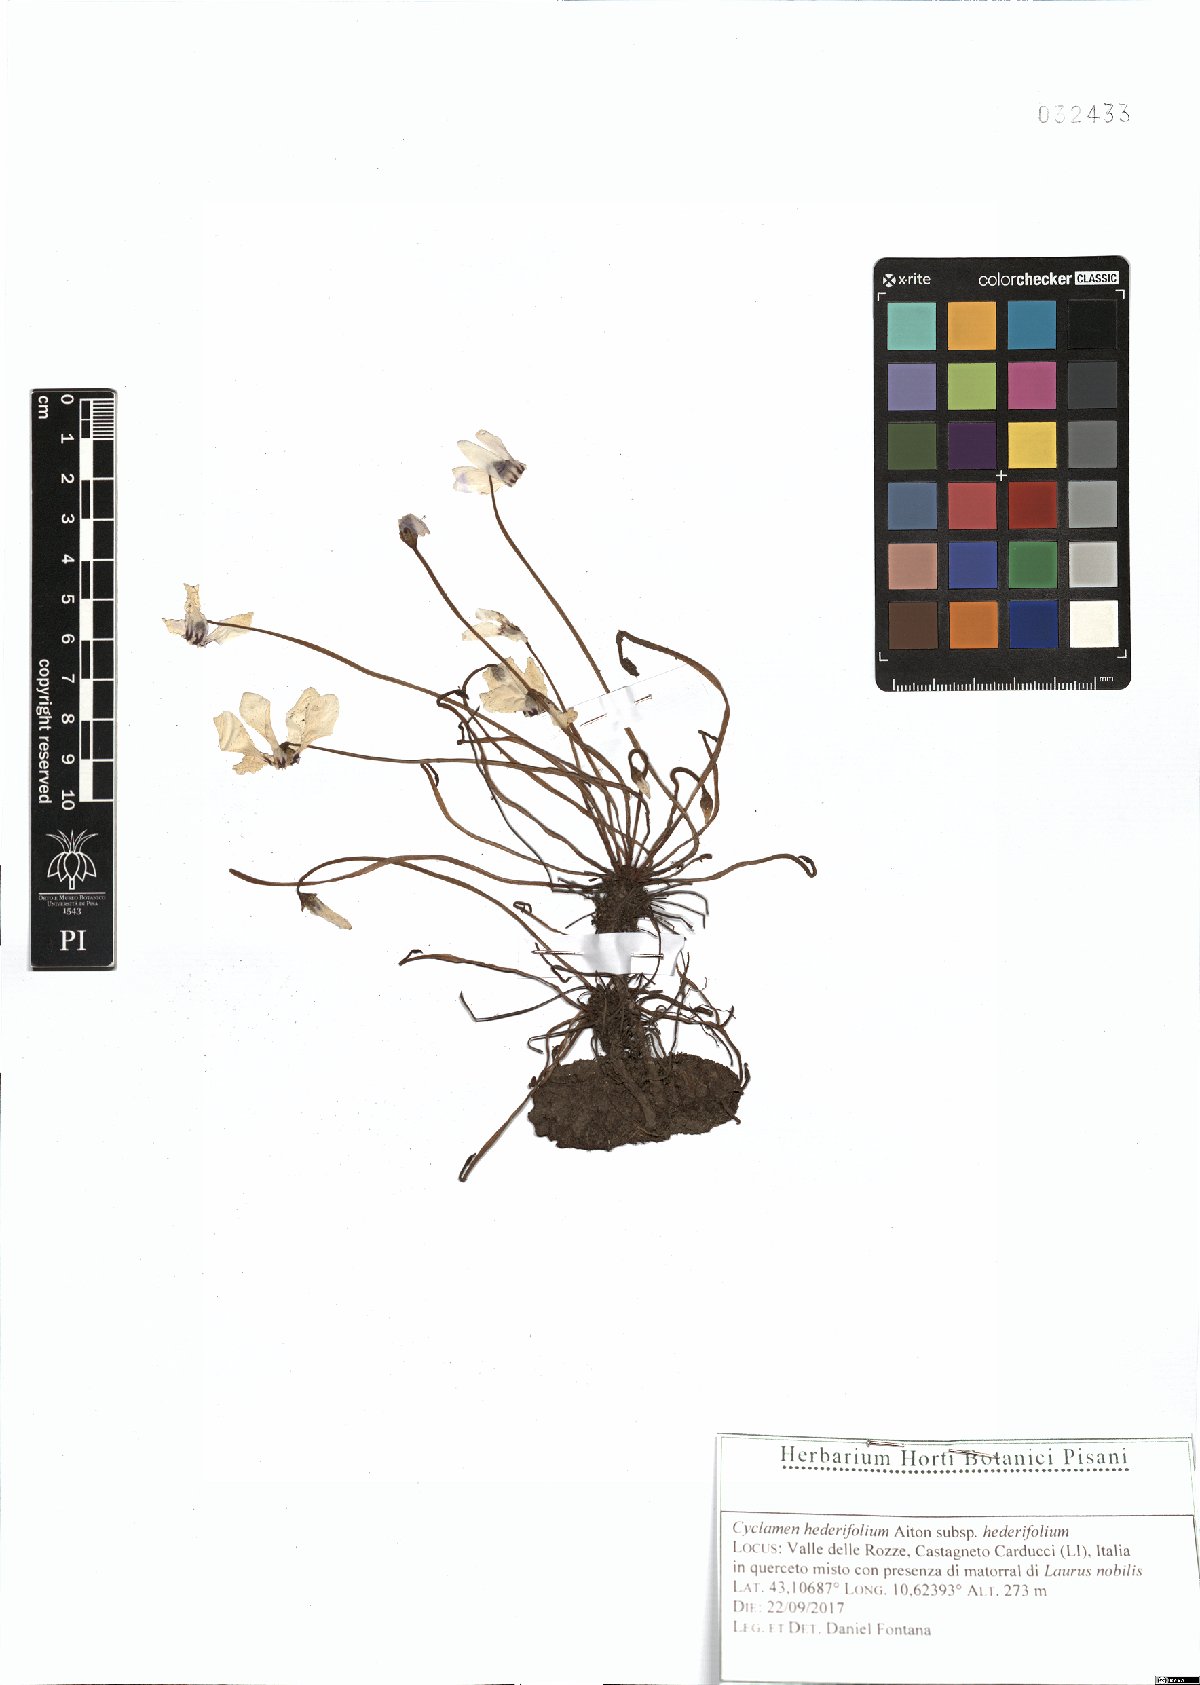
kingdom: Plantae
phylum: Tracheophyta
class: Magnoliopsida
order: Ericales
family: Primulaceae
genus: Cyclamen
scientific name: Cyclamen hederifolium
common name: Sowbread
